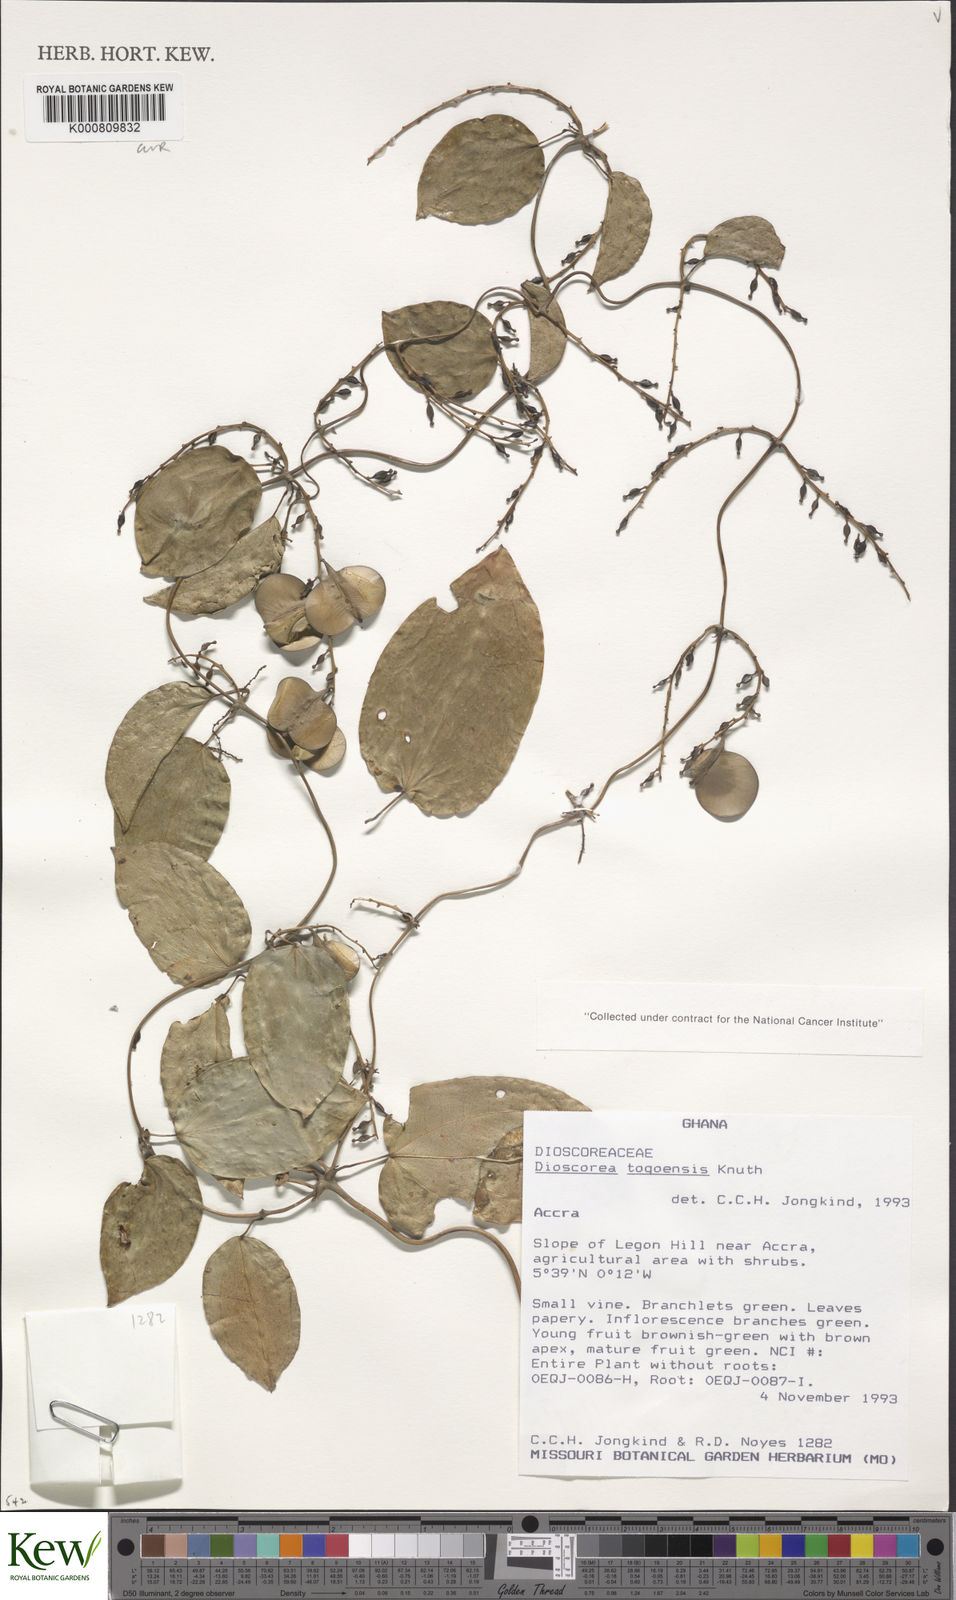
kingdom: Plantae
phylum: Tracheophyta
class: Liliopsida
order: Dioscoreales
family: Dioscoreaceae
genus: Dioscorea
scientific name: Dioscorea togoensis
